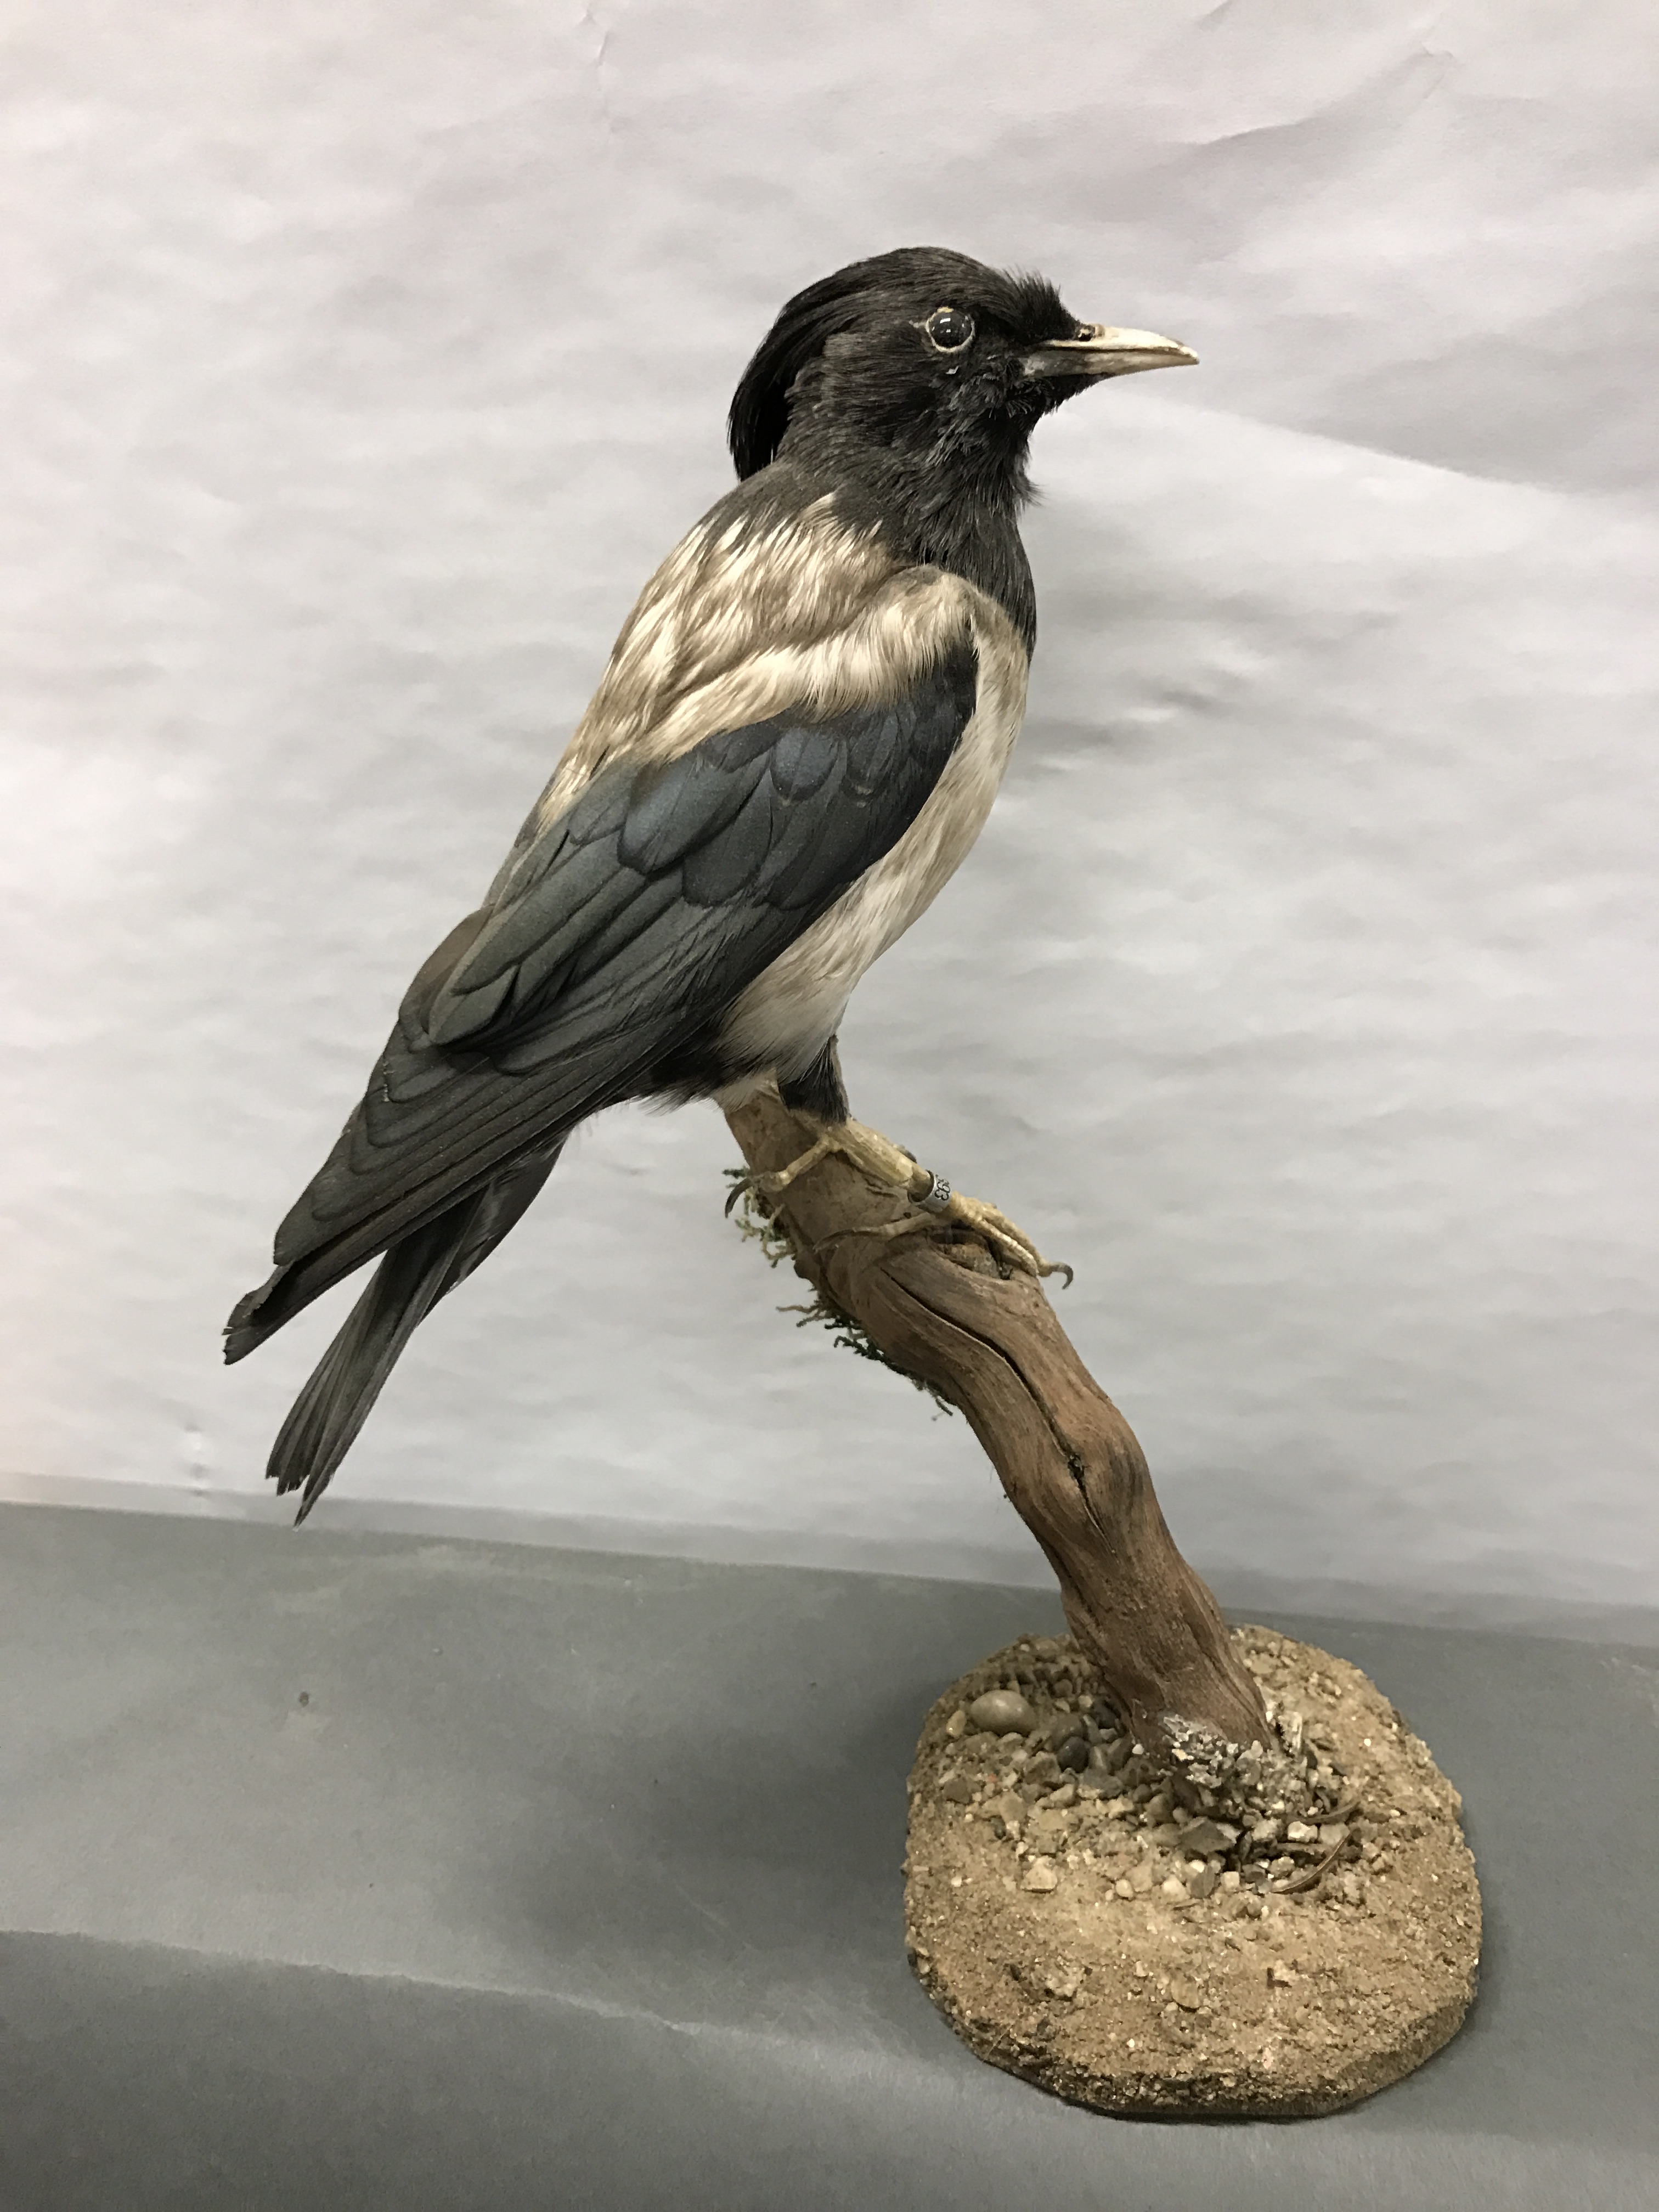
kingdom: Animalia
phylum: Chordata
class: Aves
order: Passeriformes
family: Sturnidae
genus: Pastor
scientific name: Pastor roseus
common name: Rosy starling
